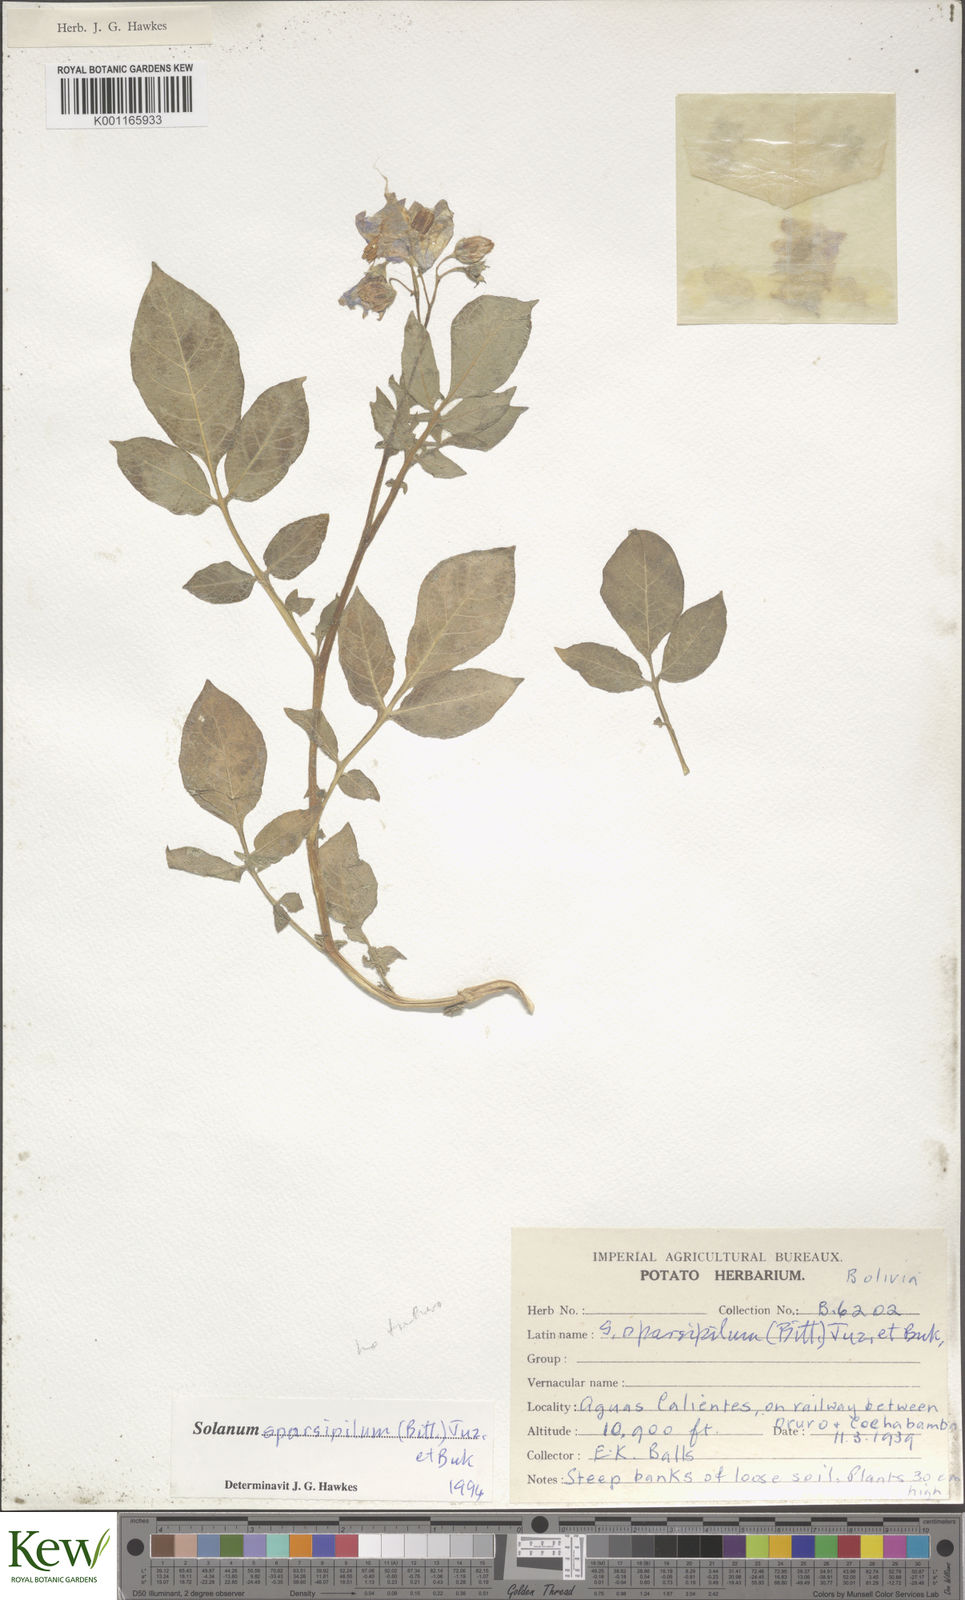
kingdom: Plantae
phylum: Tracheophyta
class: Magnoliopsida
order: Solanales
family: Solanaceae
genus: Solanum
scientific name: Solanum brevicaule
